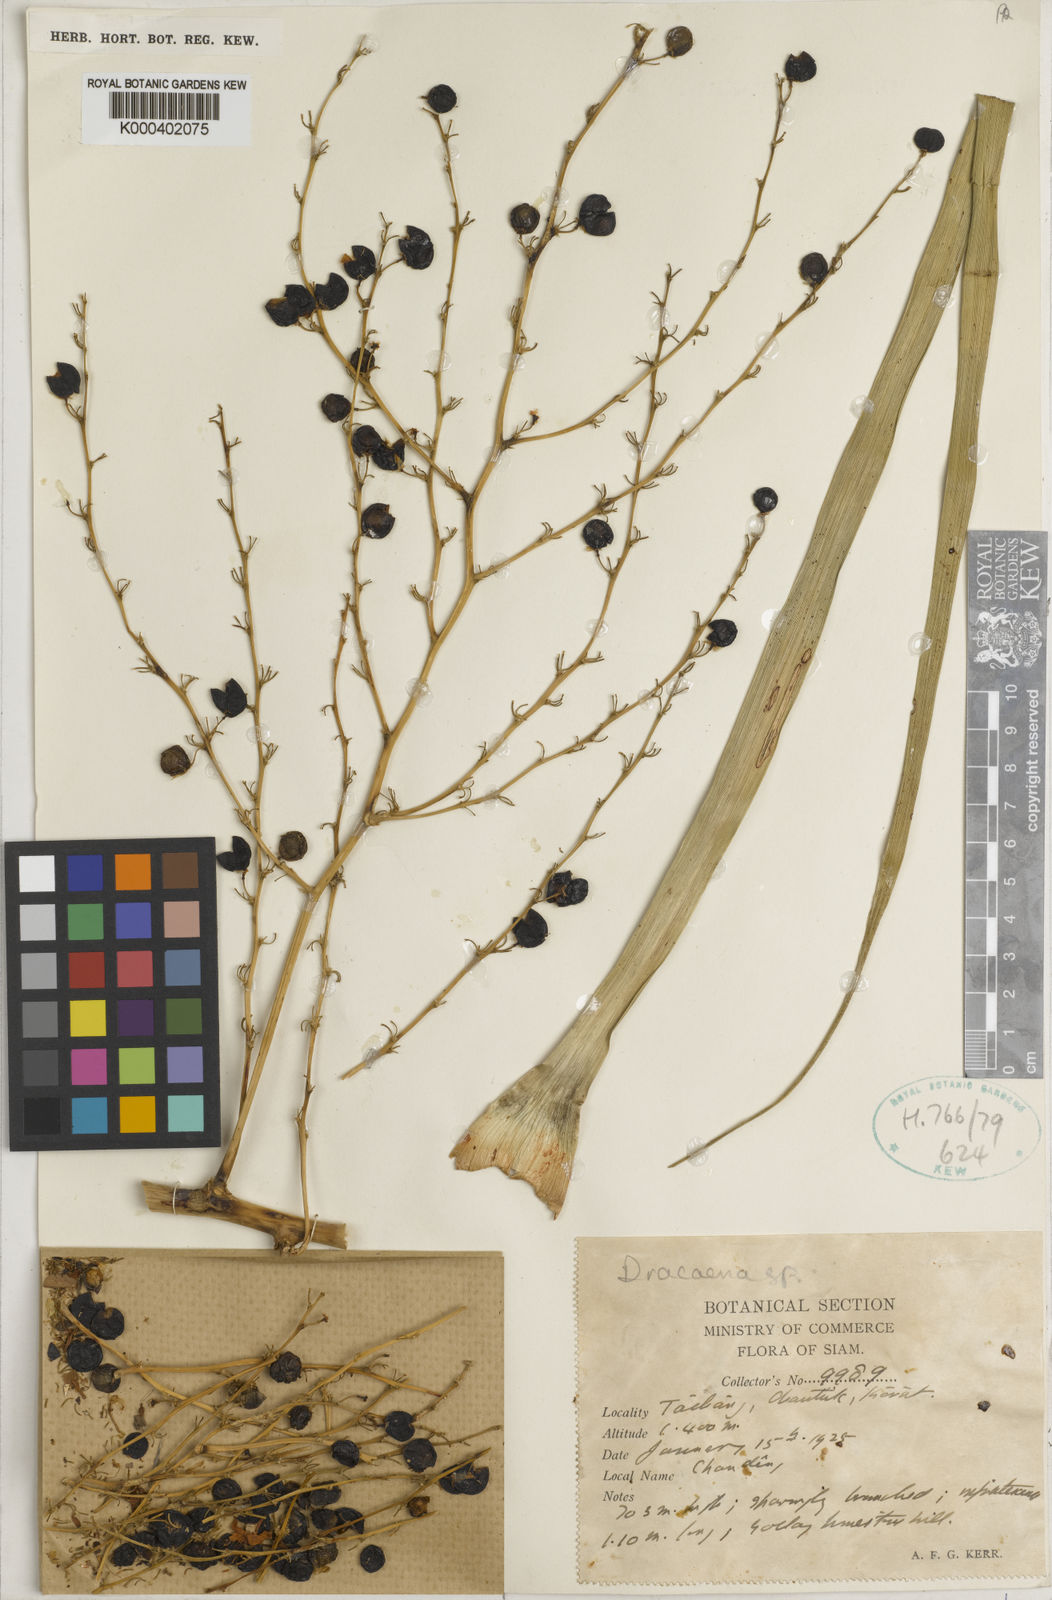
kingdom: Plantae
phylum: Tracheophyta
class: Liliopsida
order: Asparagales
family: Asparagaceae
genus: Dracaena
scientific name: Dracaena
